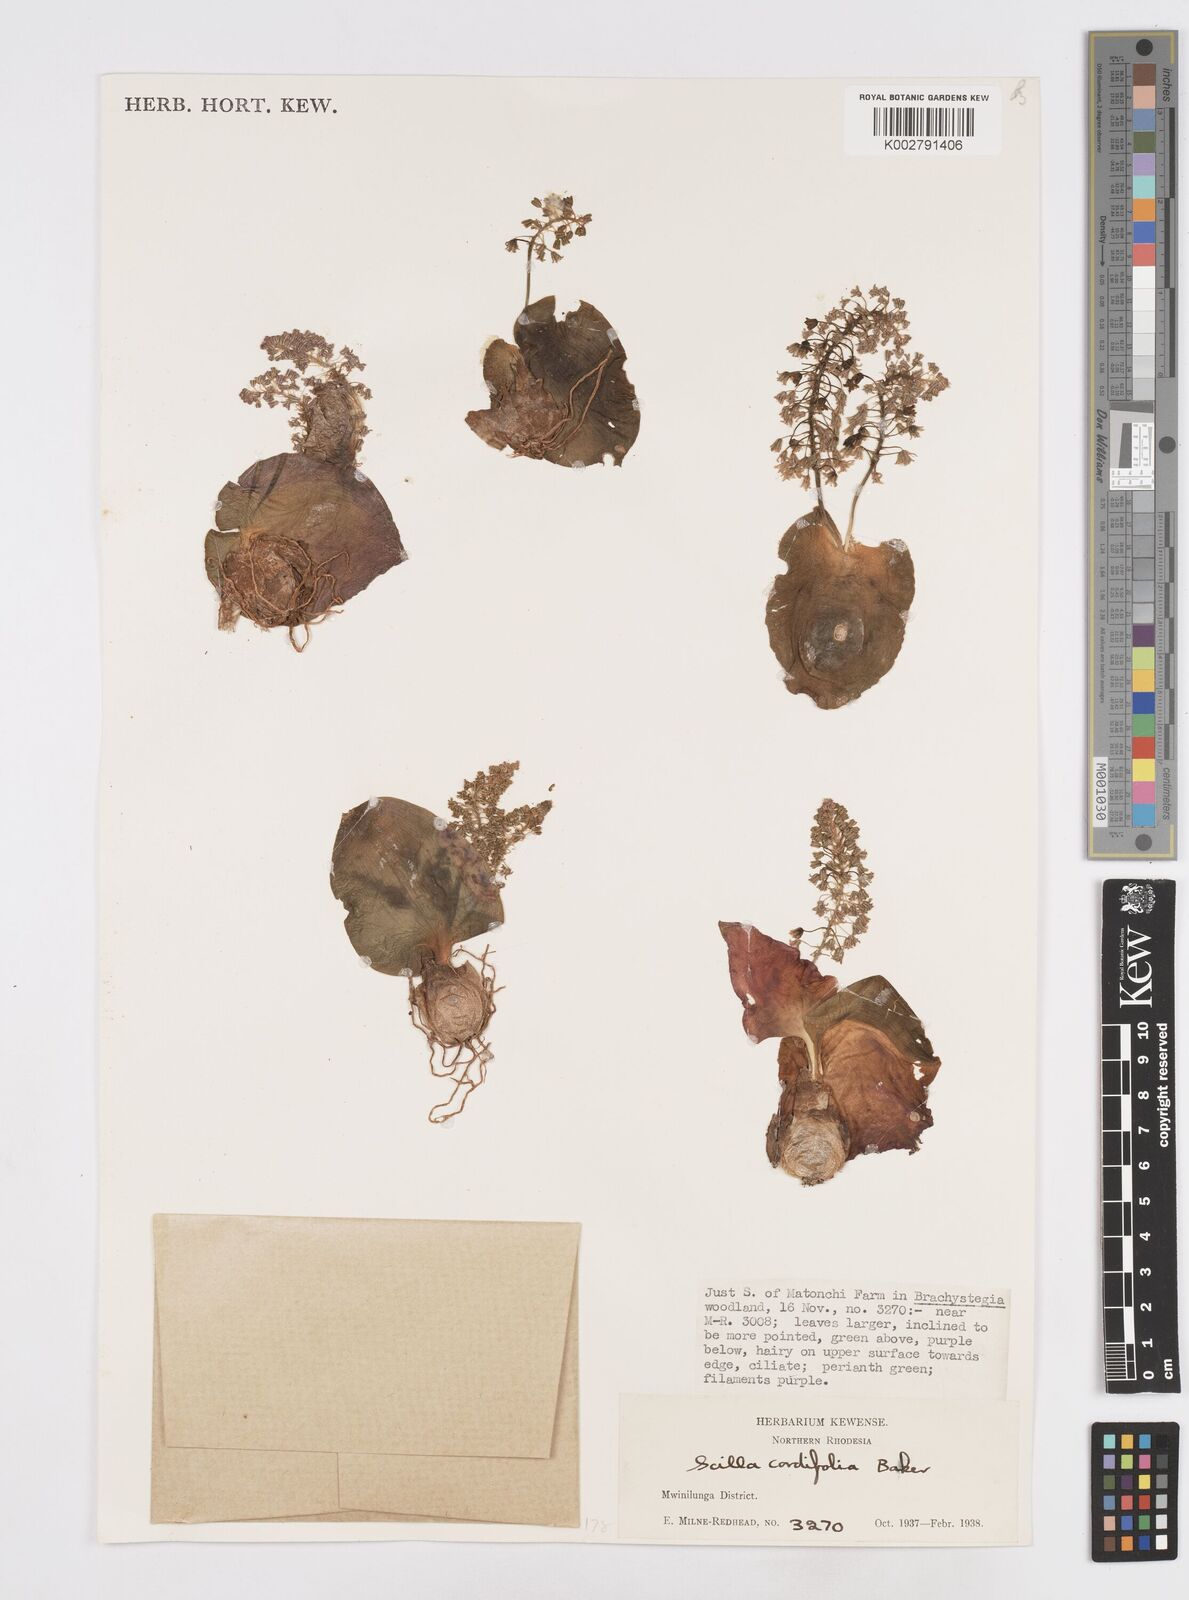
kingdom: Plantae
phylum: Tracheophyta
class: Liliopsida
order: Asparagales
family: Asparagaceae
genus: Ledebouria
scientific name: Ledebouria cordifolia
